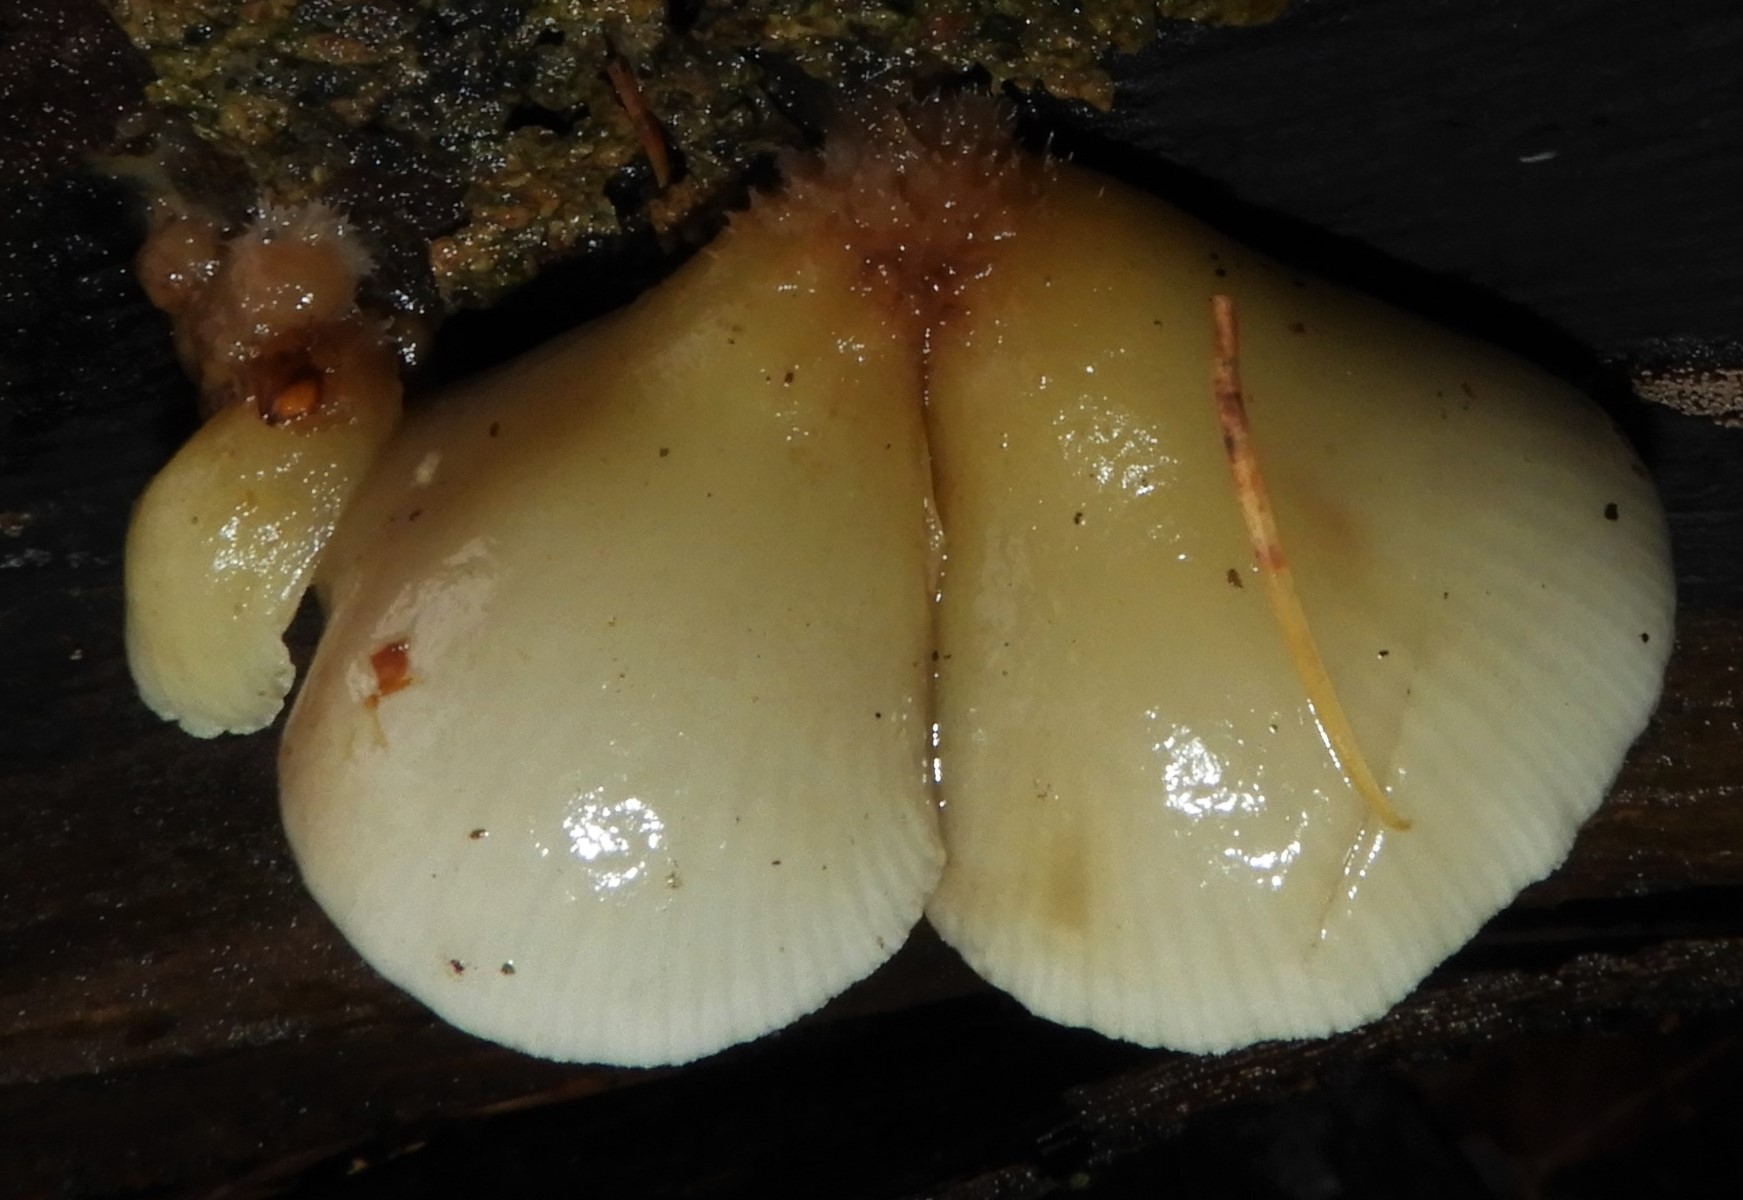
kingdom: Fungi
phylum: Basidiomycota
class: Agaricomycetes
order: Agaricales
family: Crepidotaceae
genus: Crepidotus
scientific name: Crepidotus mollis
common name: blød muslingesvamp
